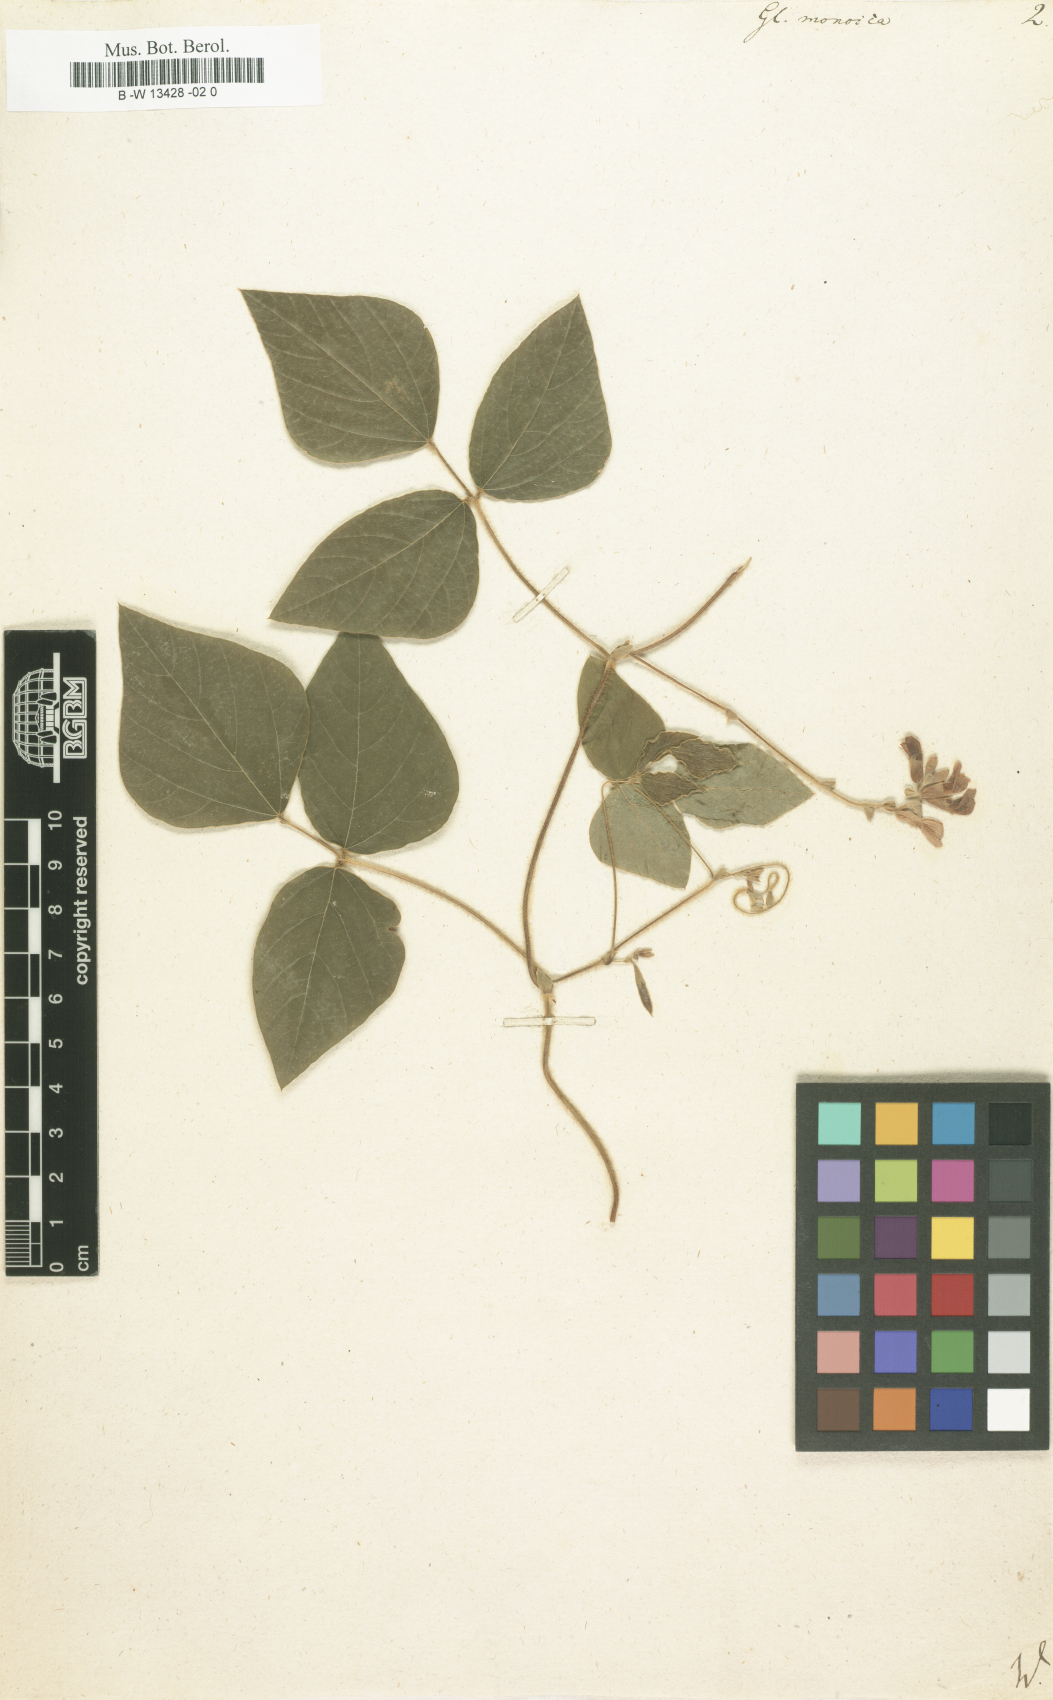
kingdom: Plantae
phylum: Tracheophyta
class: Magnoliopsida
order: Fabales
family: Fabaceae
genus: Amphicarpaea
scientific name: Amphicarpaea bracteata
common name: American hog peanut
